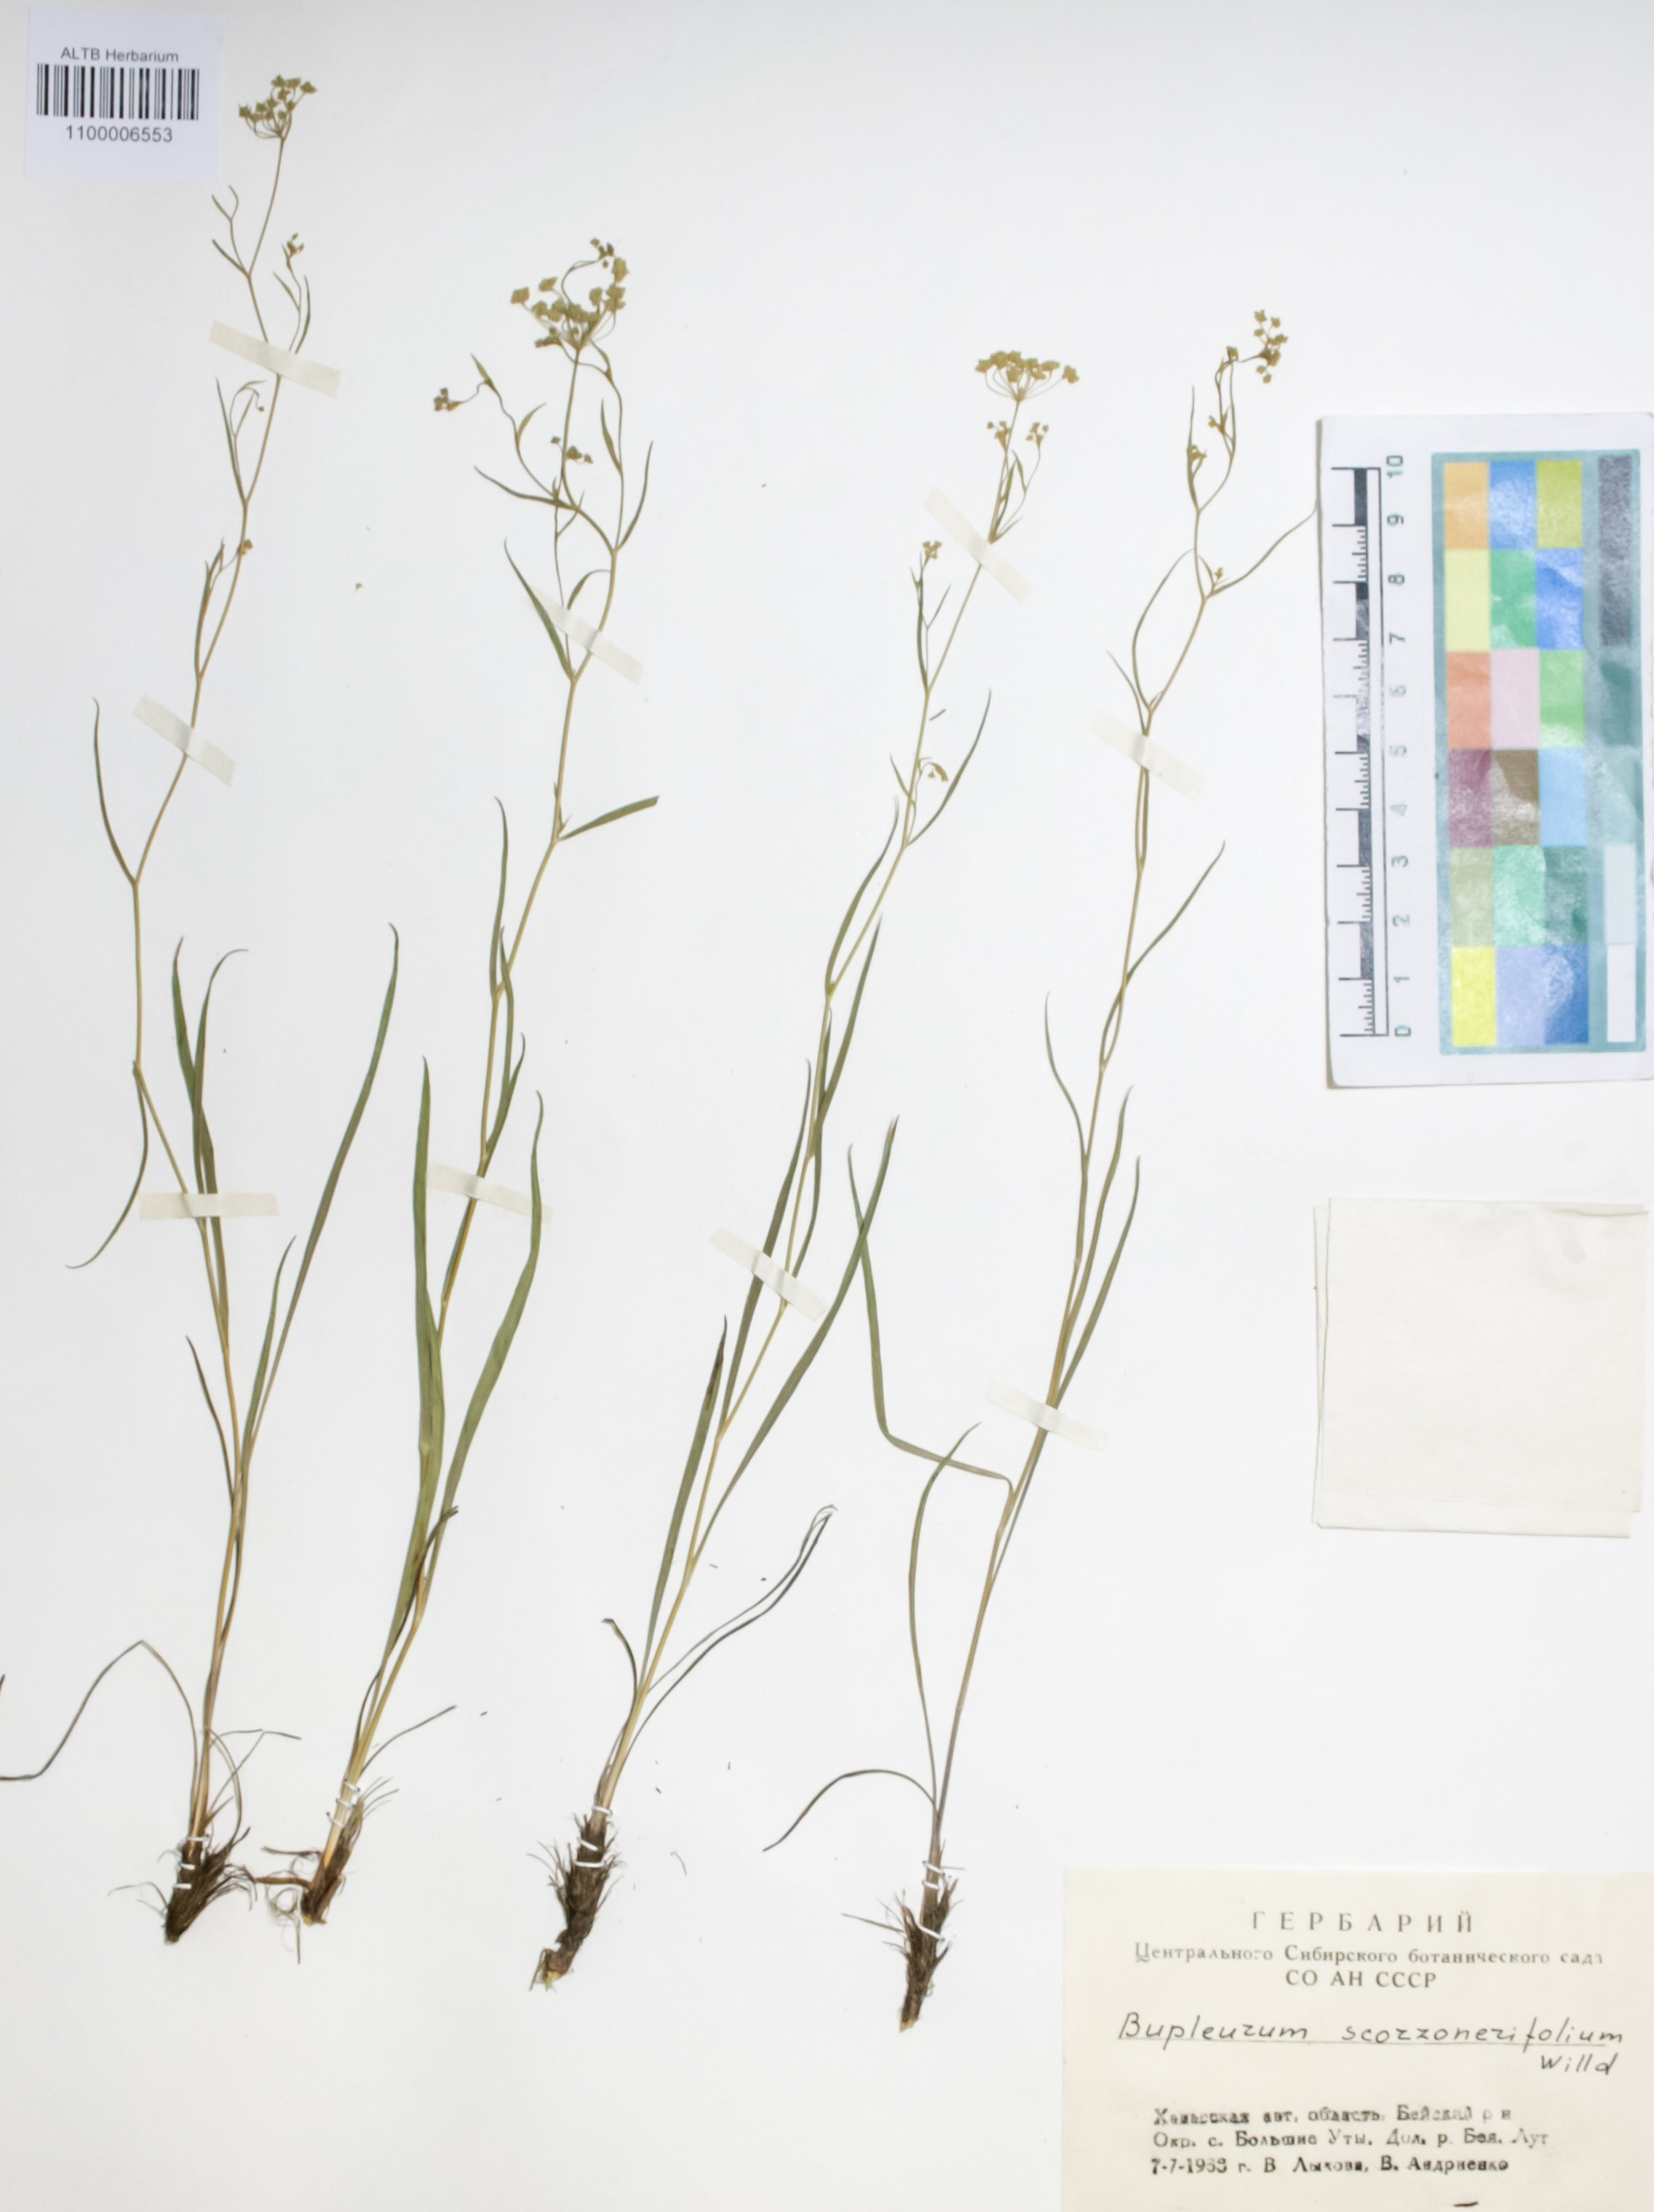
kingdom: Plantae
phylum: Tracheophyta
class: Magnoliopsida
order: Apiales
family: Apiaceae
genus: Bupleurum
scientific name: Bupleurum scorzonerifolium
